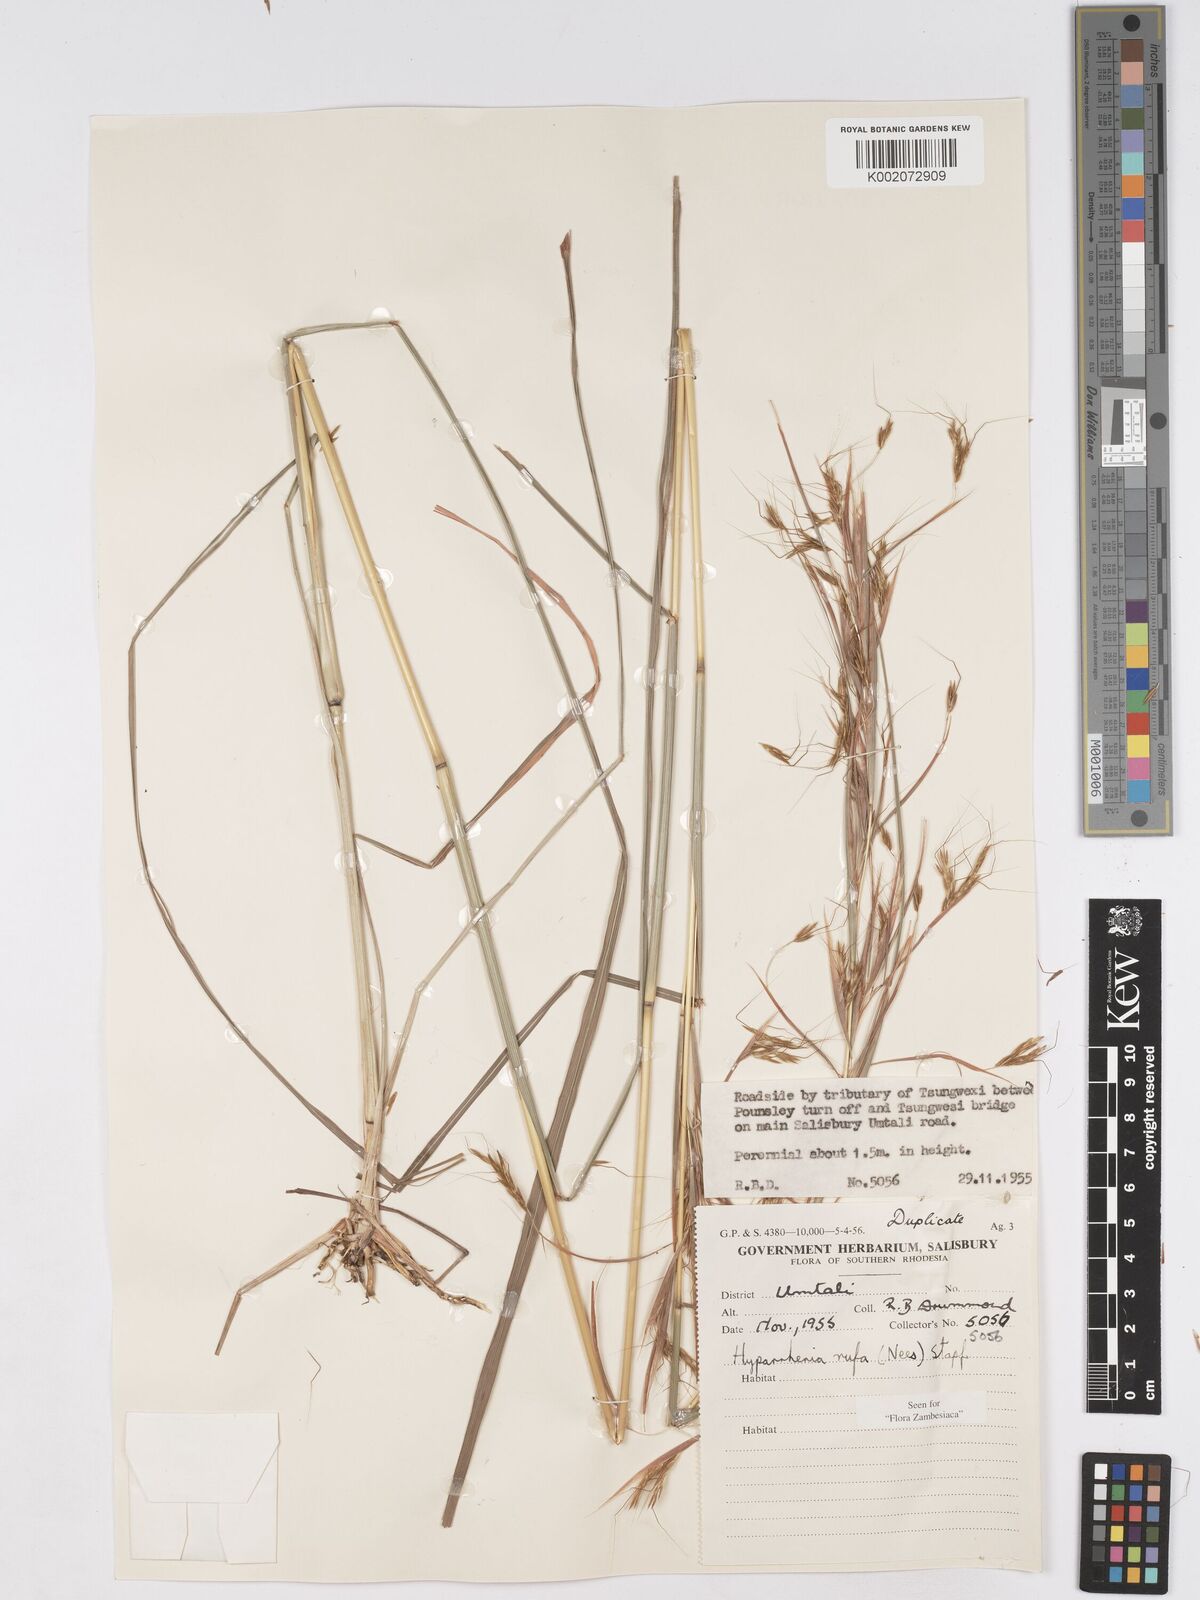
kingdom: Plantae
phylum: Tracheophyta
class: Liliopsida
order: Poales
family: Poaceae
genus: Hyparrhenia
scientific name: Hyparrhenia rufa
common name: Jaraguagrass
